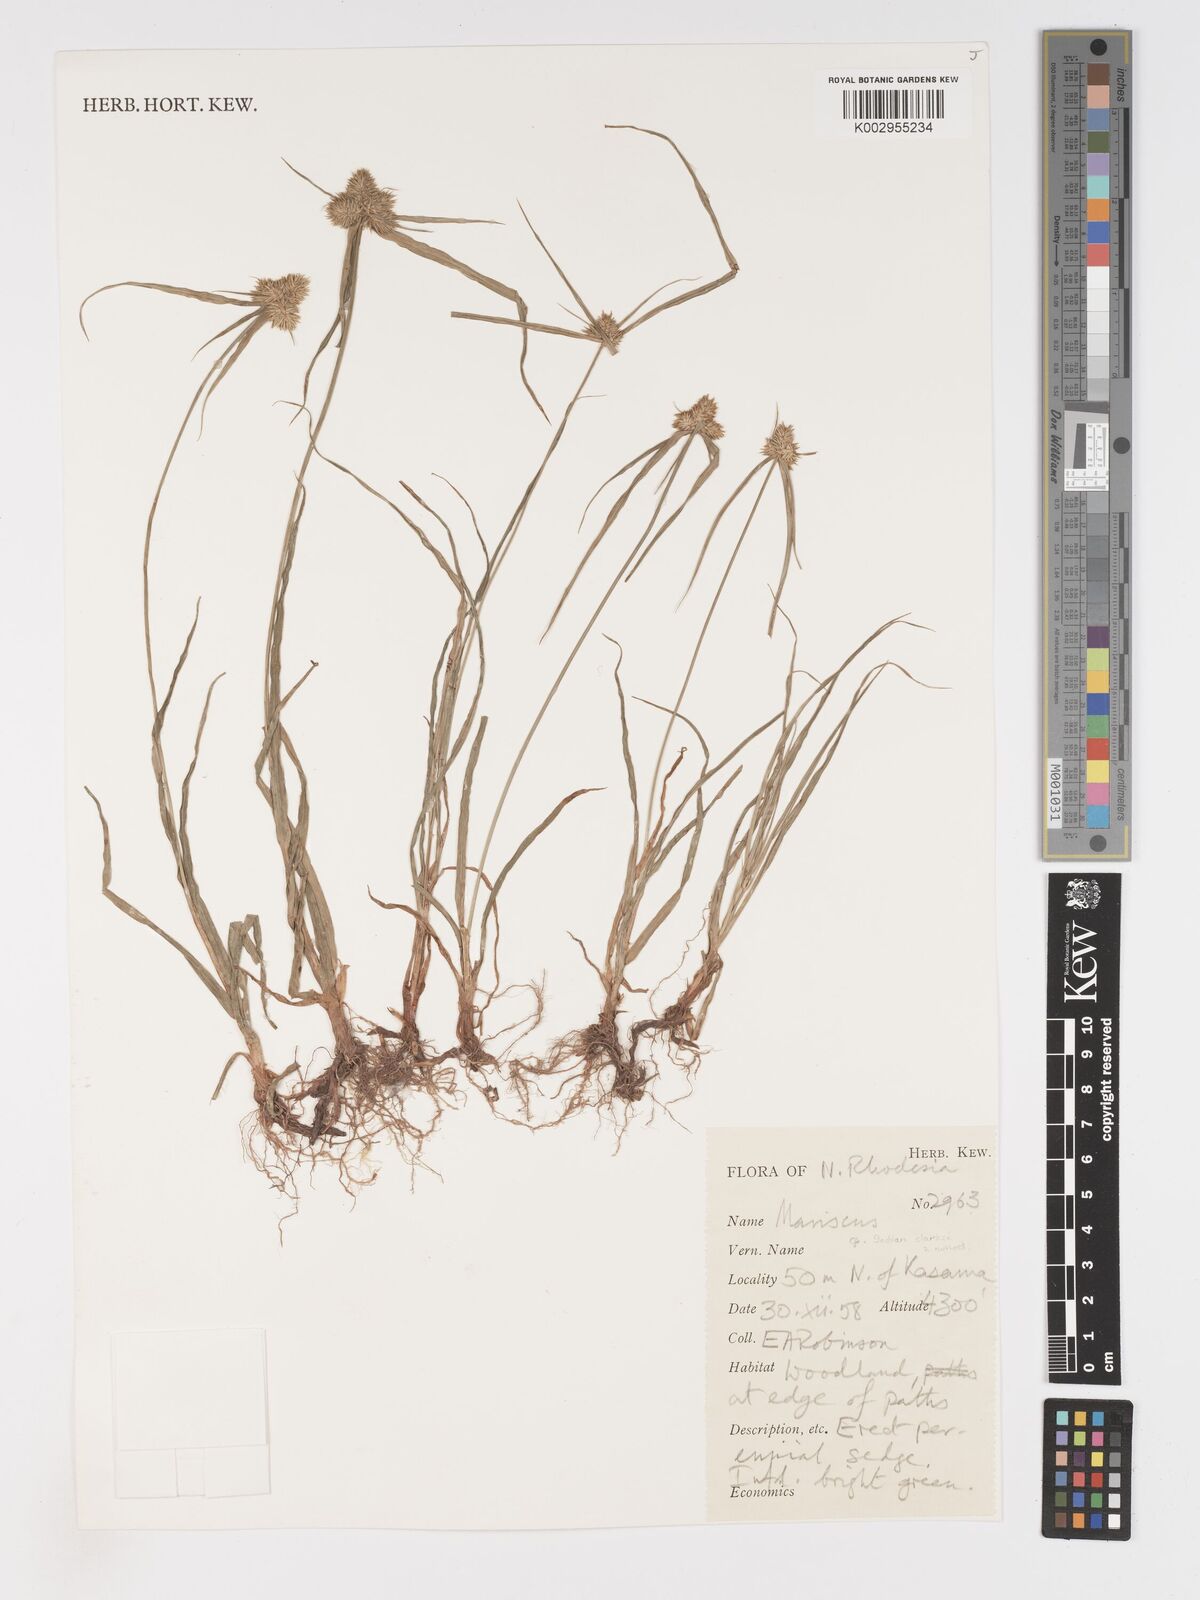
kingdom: Plantae
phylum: Tracheophyta
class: Liliopsida
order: Poales
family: Cyperaceae
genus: Cyperus
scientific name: Cyperus
